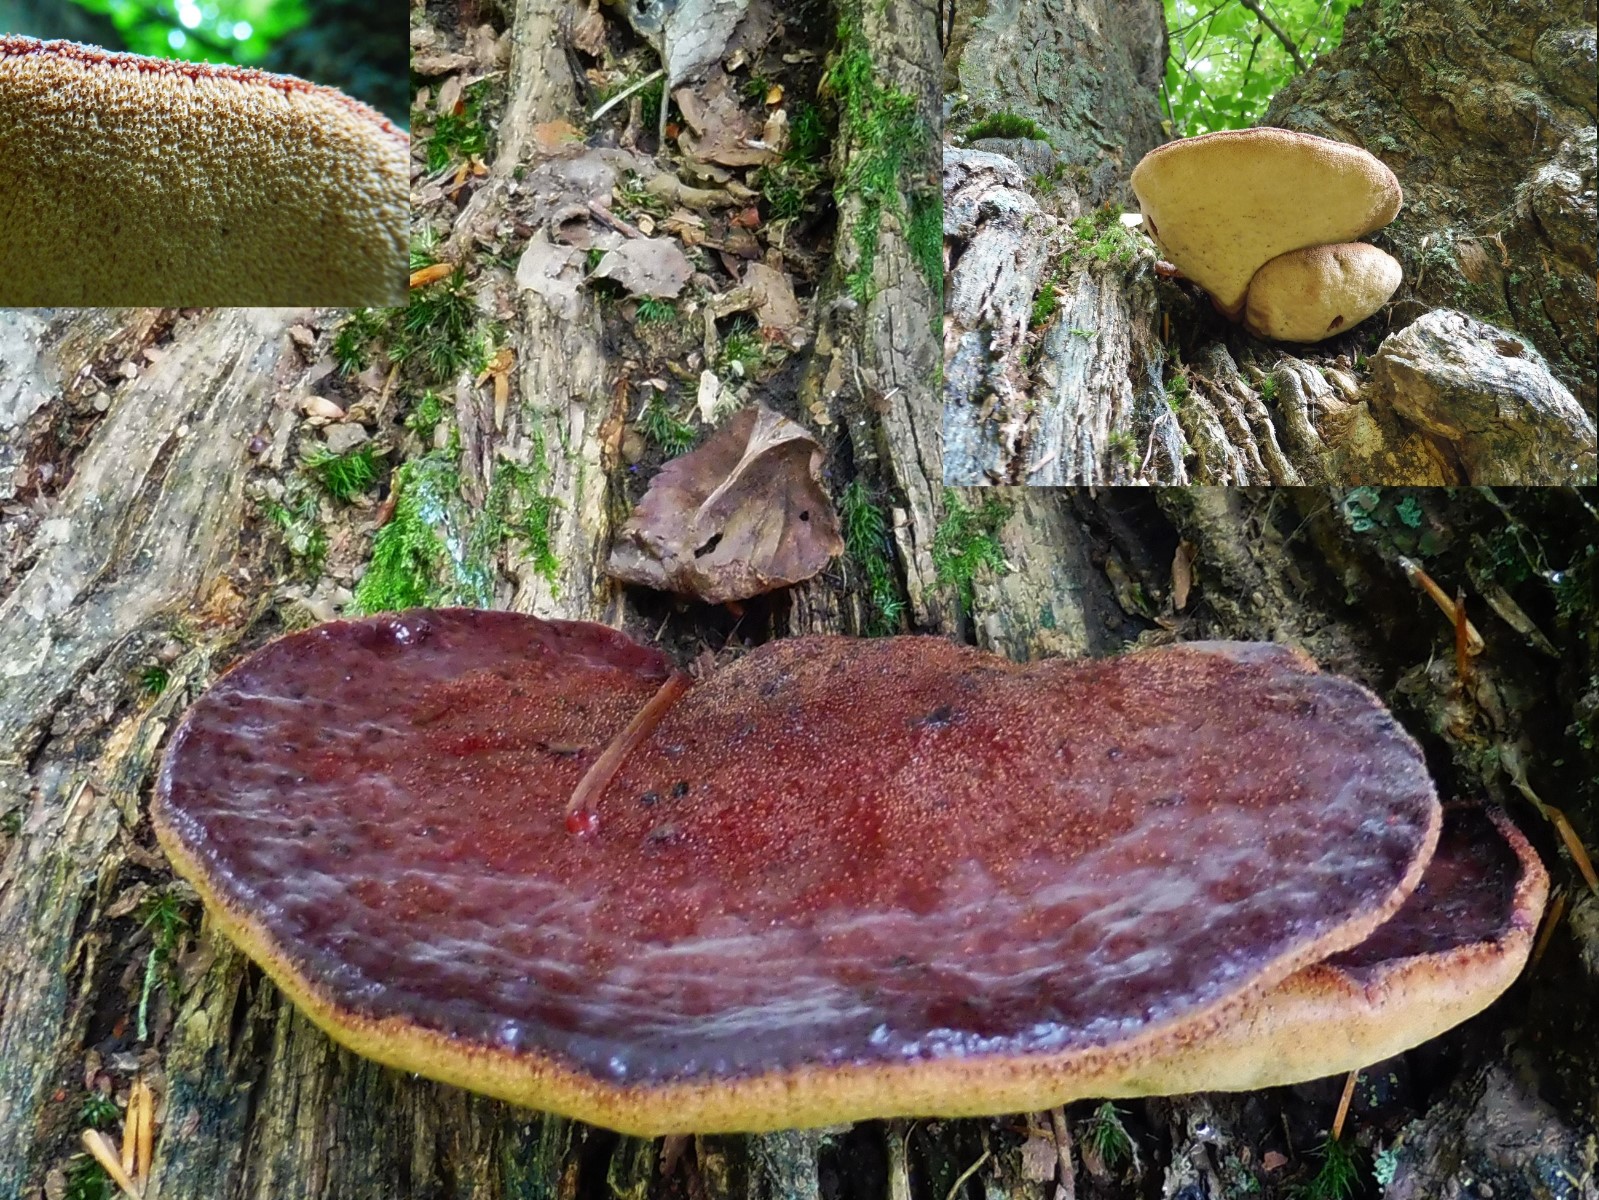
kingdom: Fungi
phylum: Basidiomycota
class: Agaricomycetes
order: Agaricales
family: Fistulinaceae
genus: Fistulina
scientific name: Fistulina hepatica
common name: oksetunge
